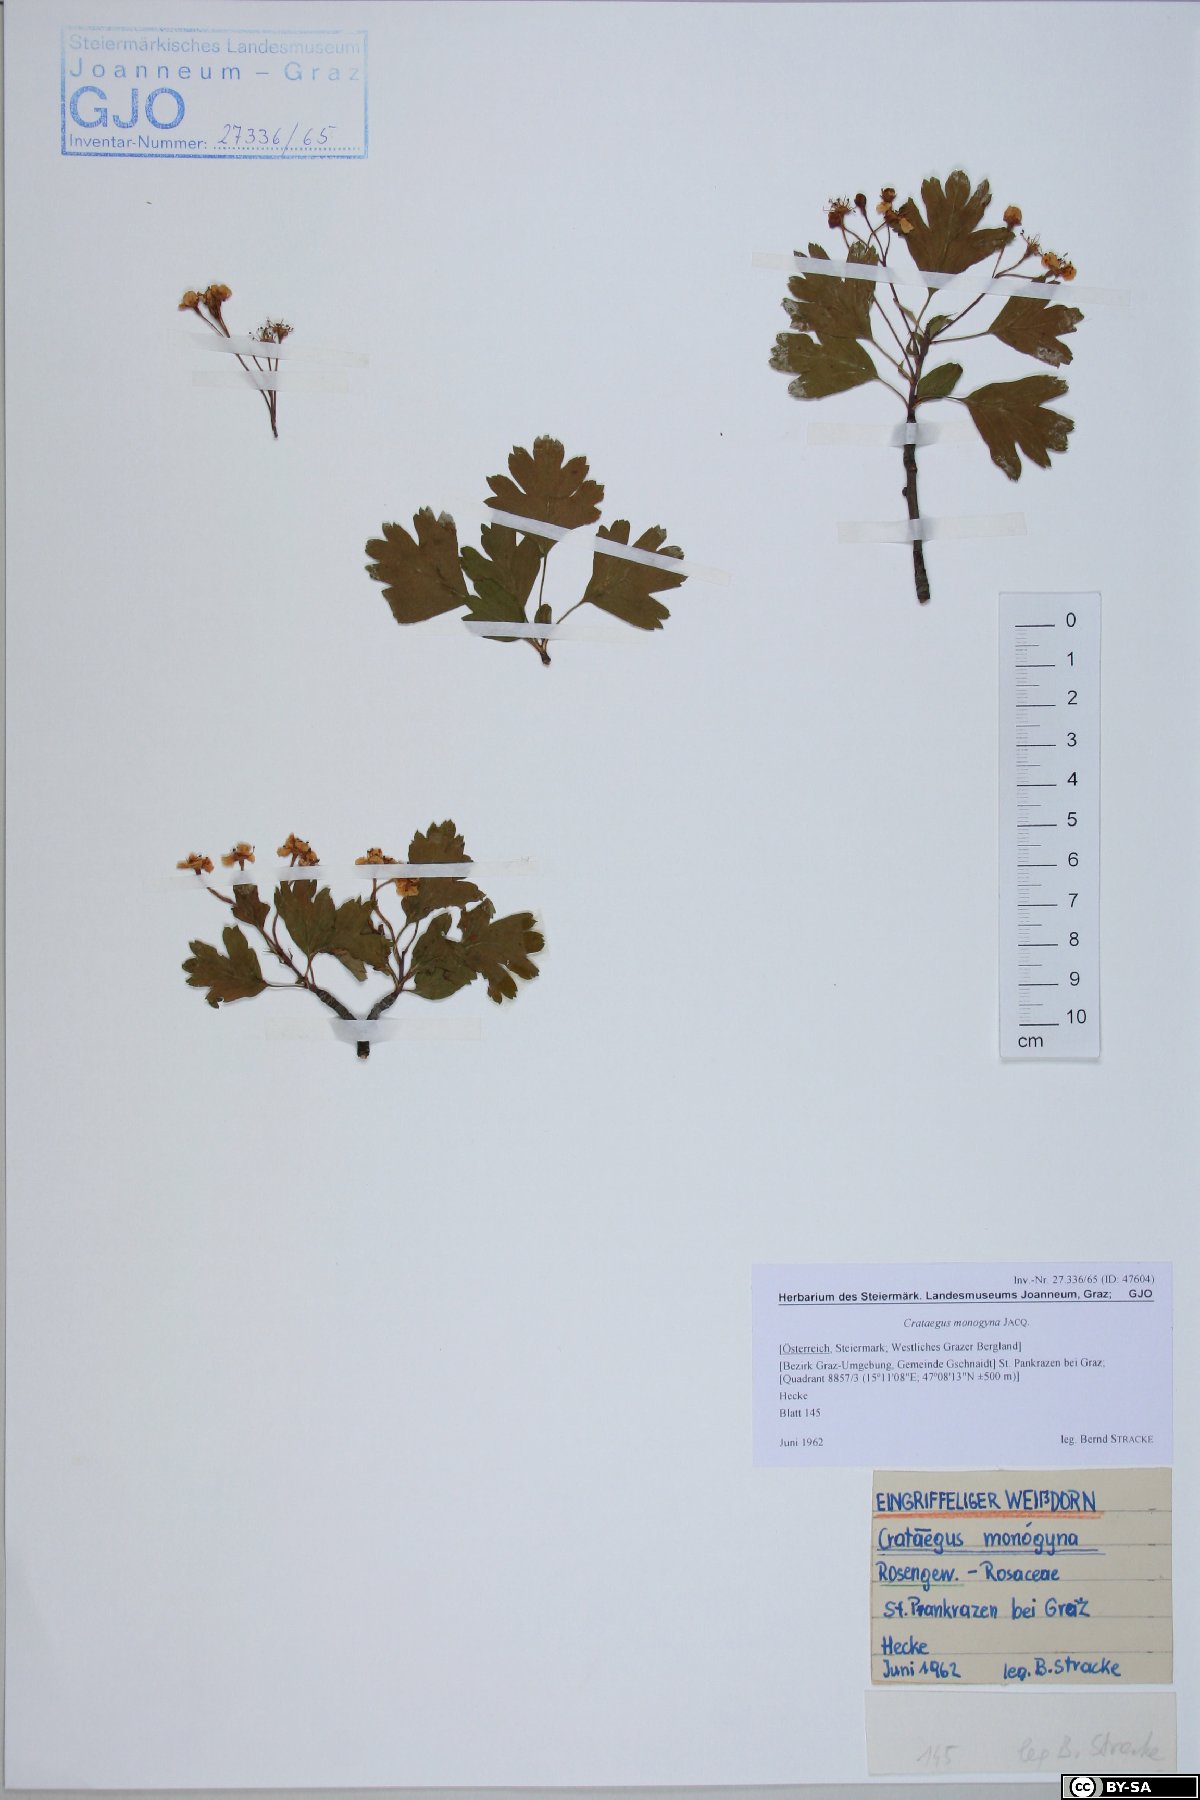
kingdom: Plantae
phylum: Tracheophyta
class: Magnoliopsida
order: Rosales
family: Rosaceae
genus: Crataegus
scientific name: Crataegus monogyna
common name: Hawthorn
